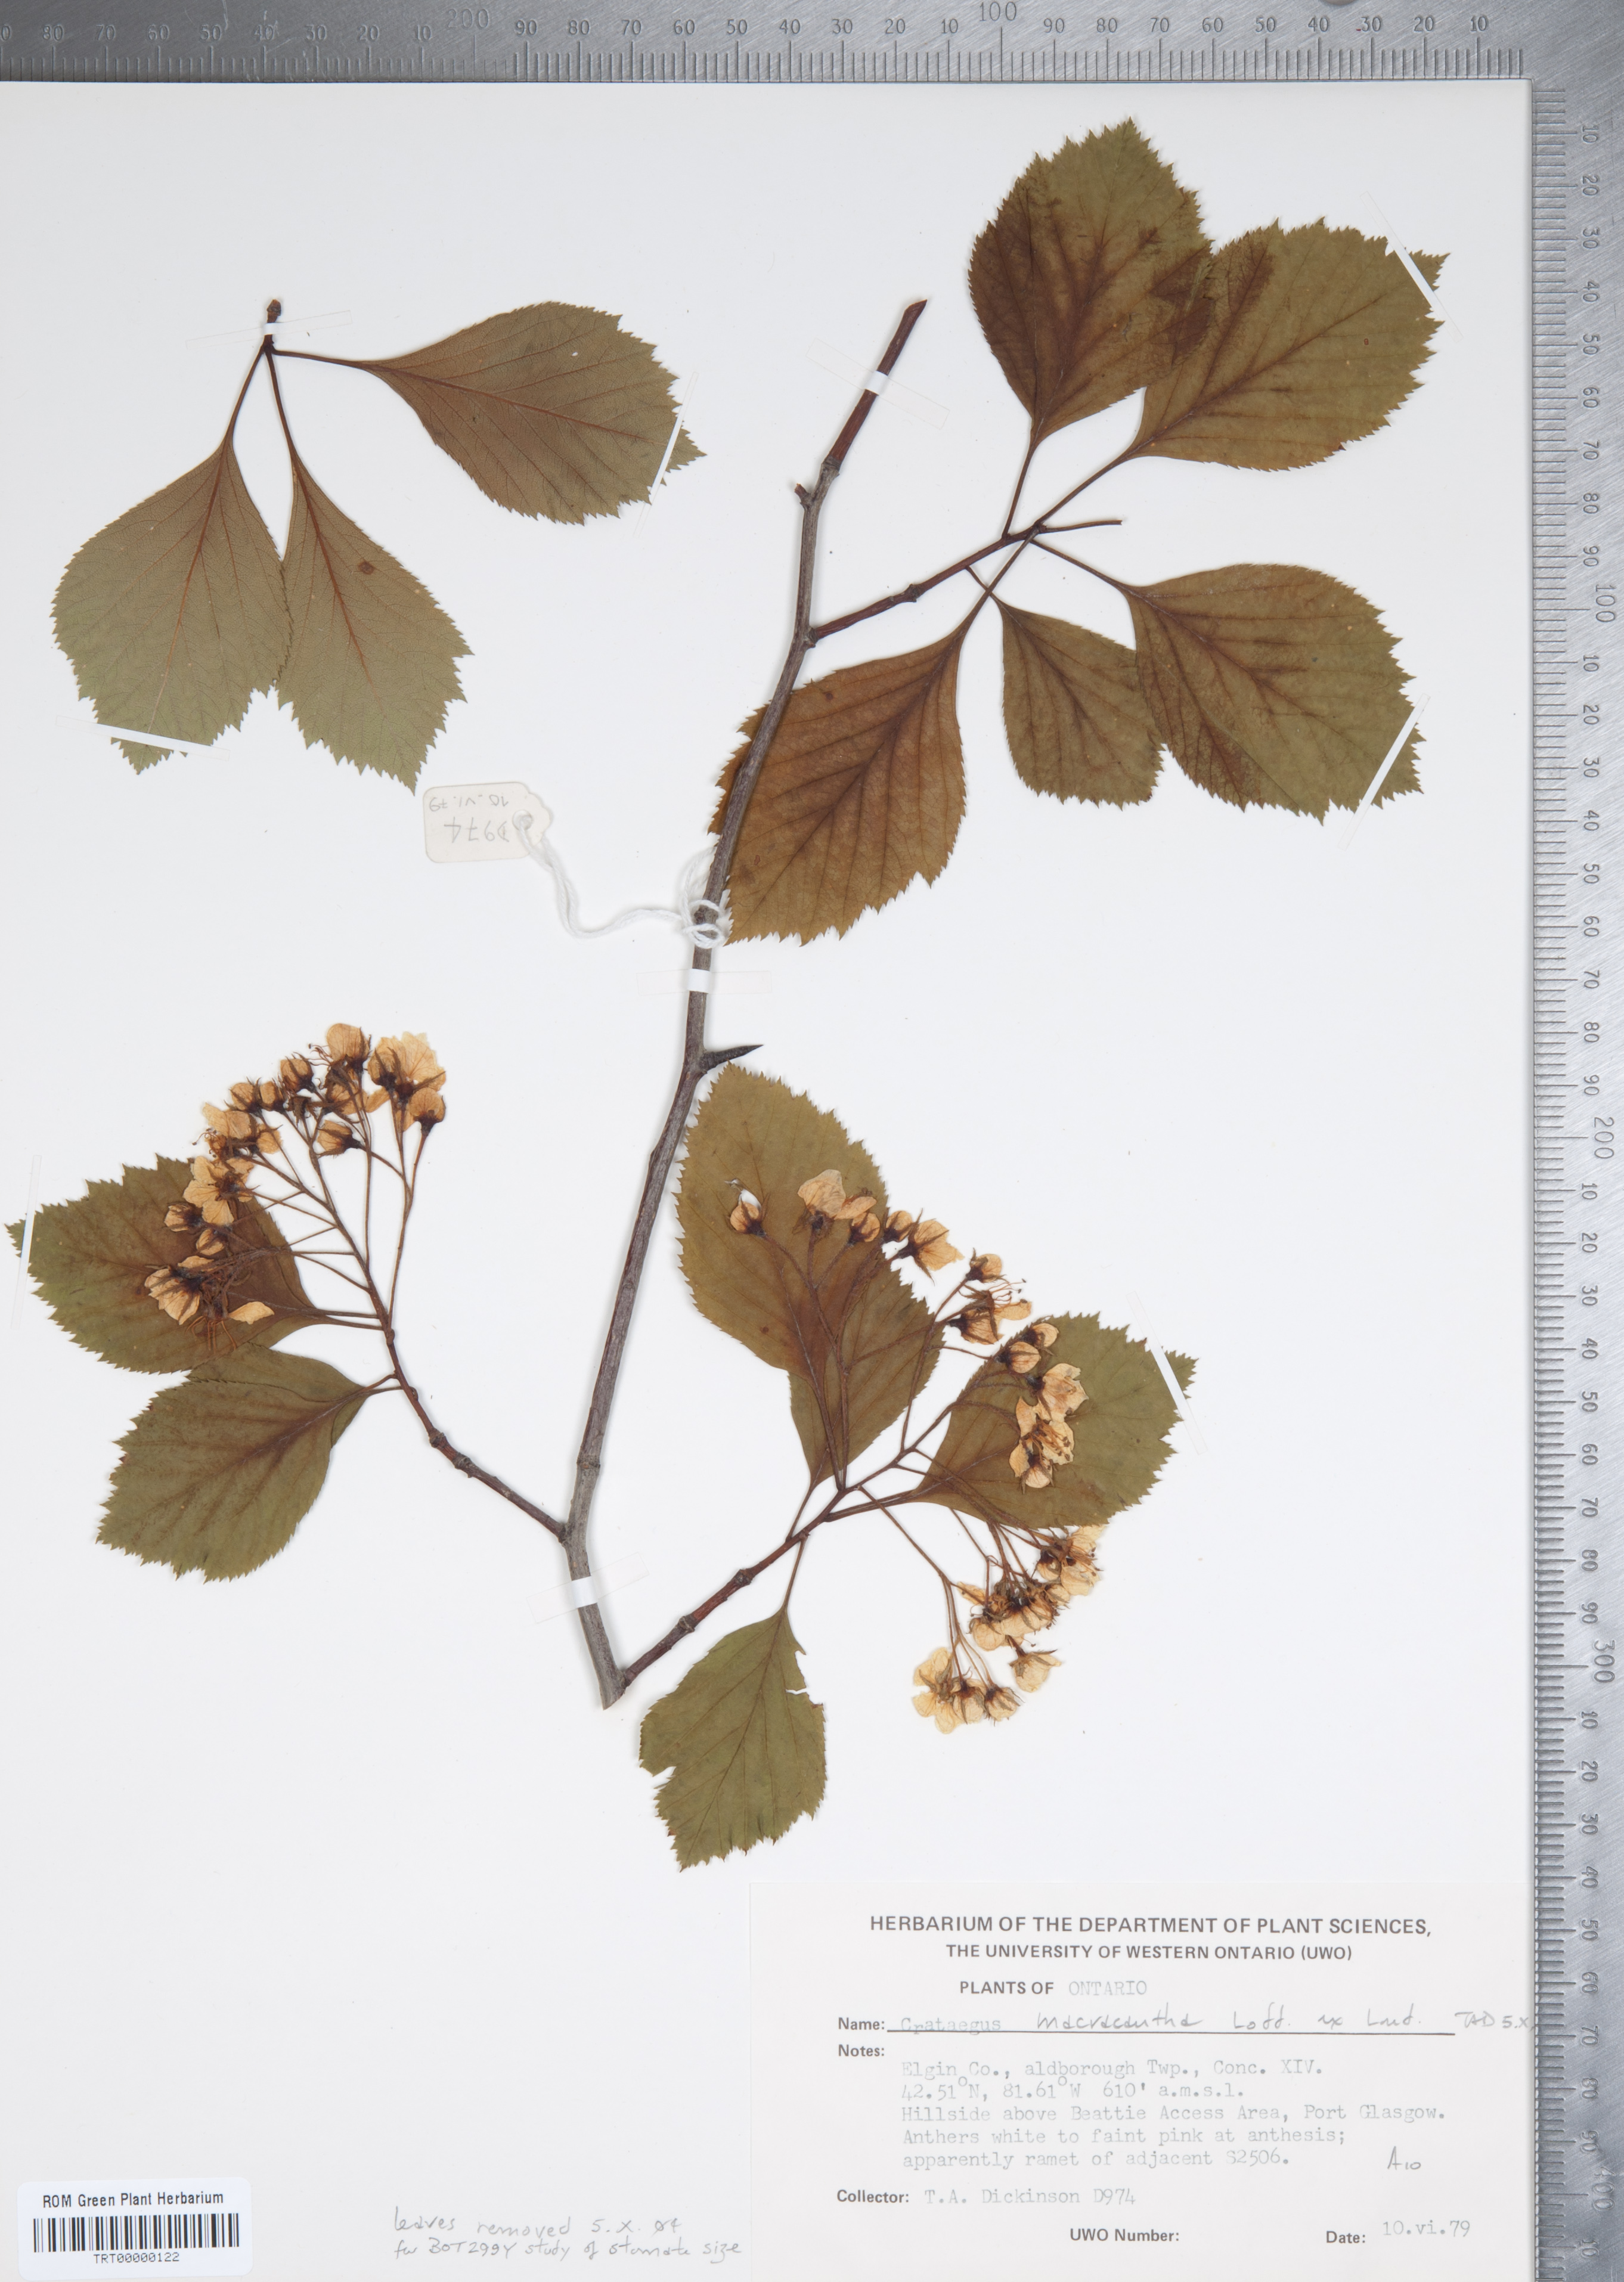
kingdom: Plantae
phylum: Tracheophyta
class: Magnoliopsida
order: Rosales
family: Rosaceae
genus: Crataegus
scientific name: Crataegus macracantha
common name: Large-thorn hawthorn
